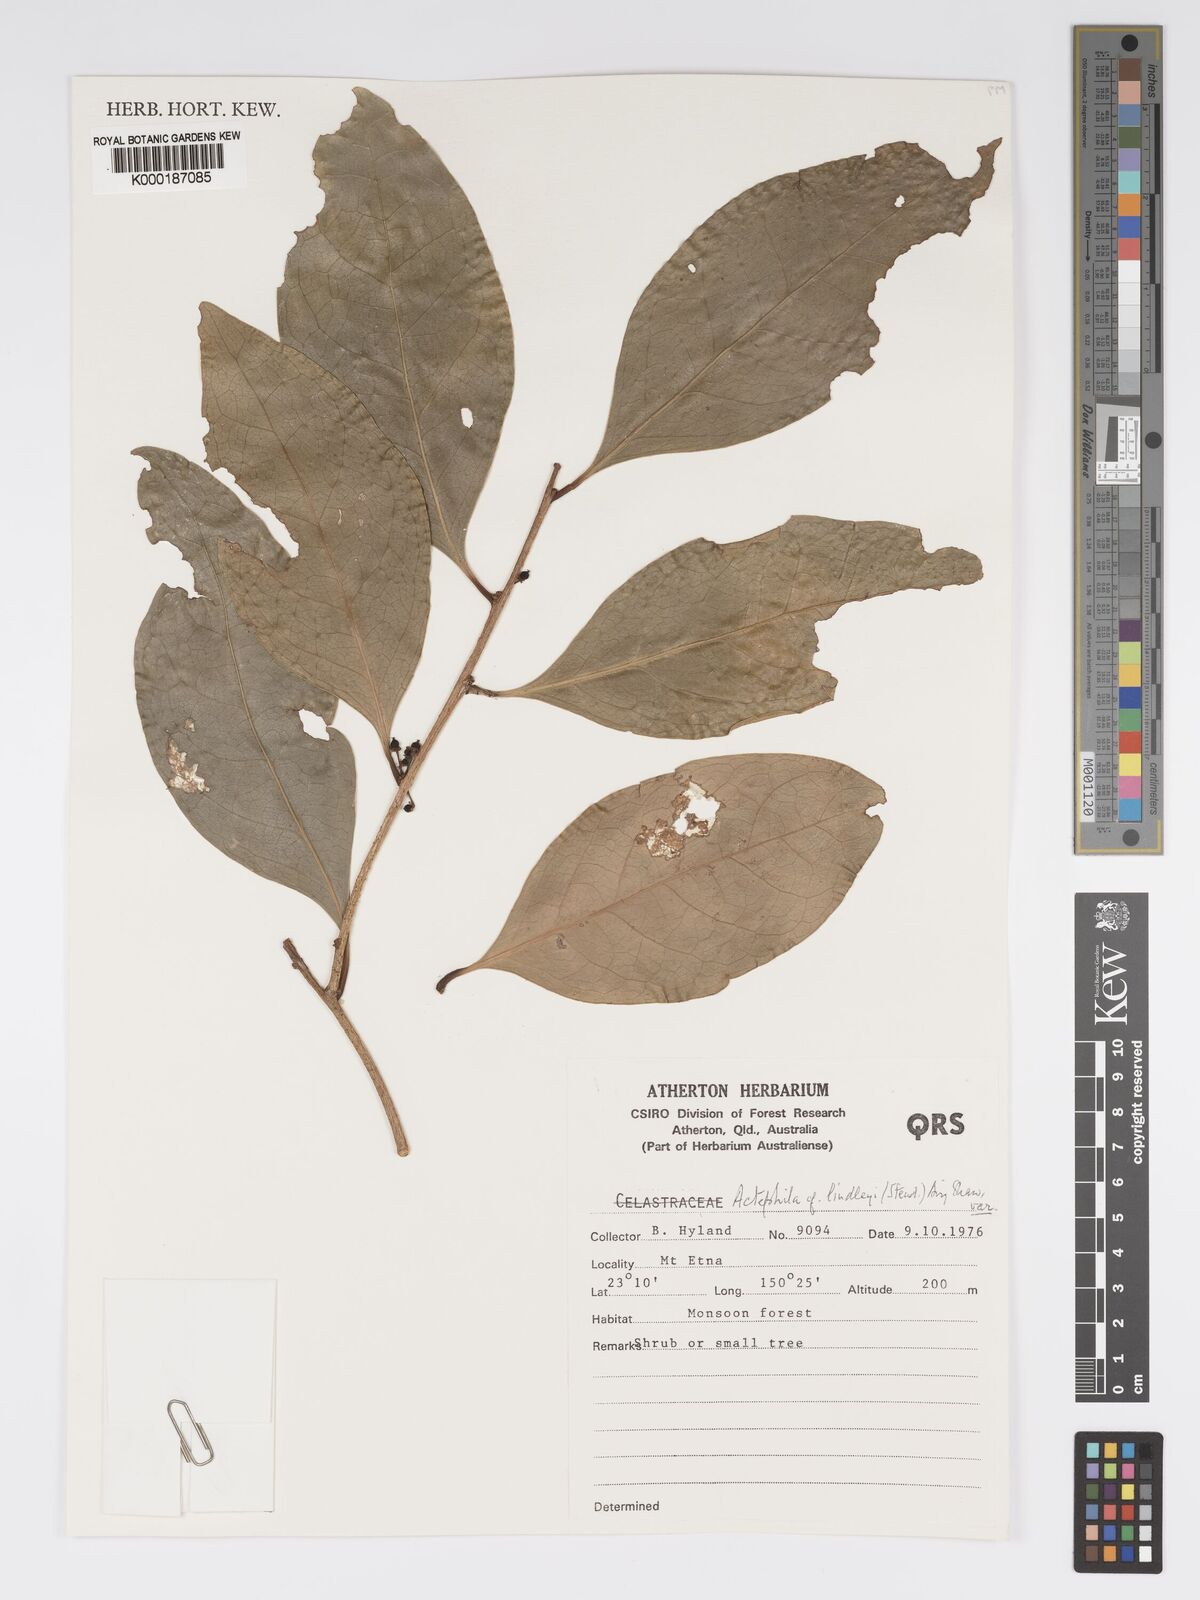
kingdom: Plantae
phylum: Tracheophyta
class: Magnoliopsida
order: Malpighiales
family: Phyllanthaceae
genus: Actephila
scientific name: Actephila lindleyi
